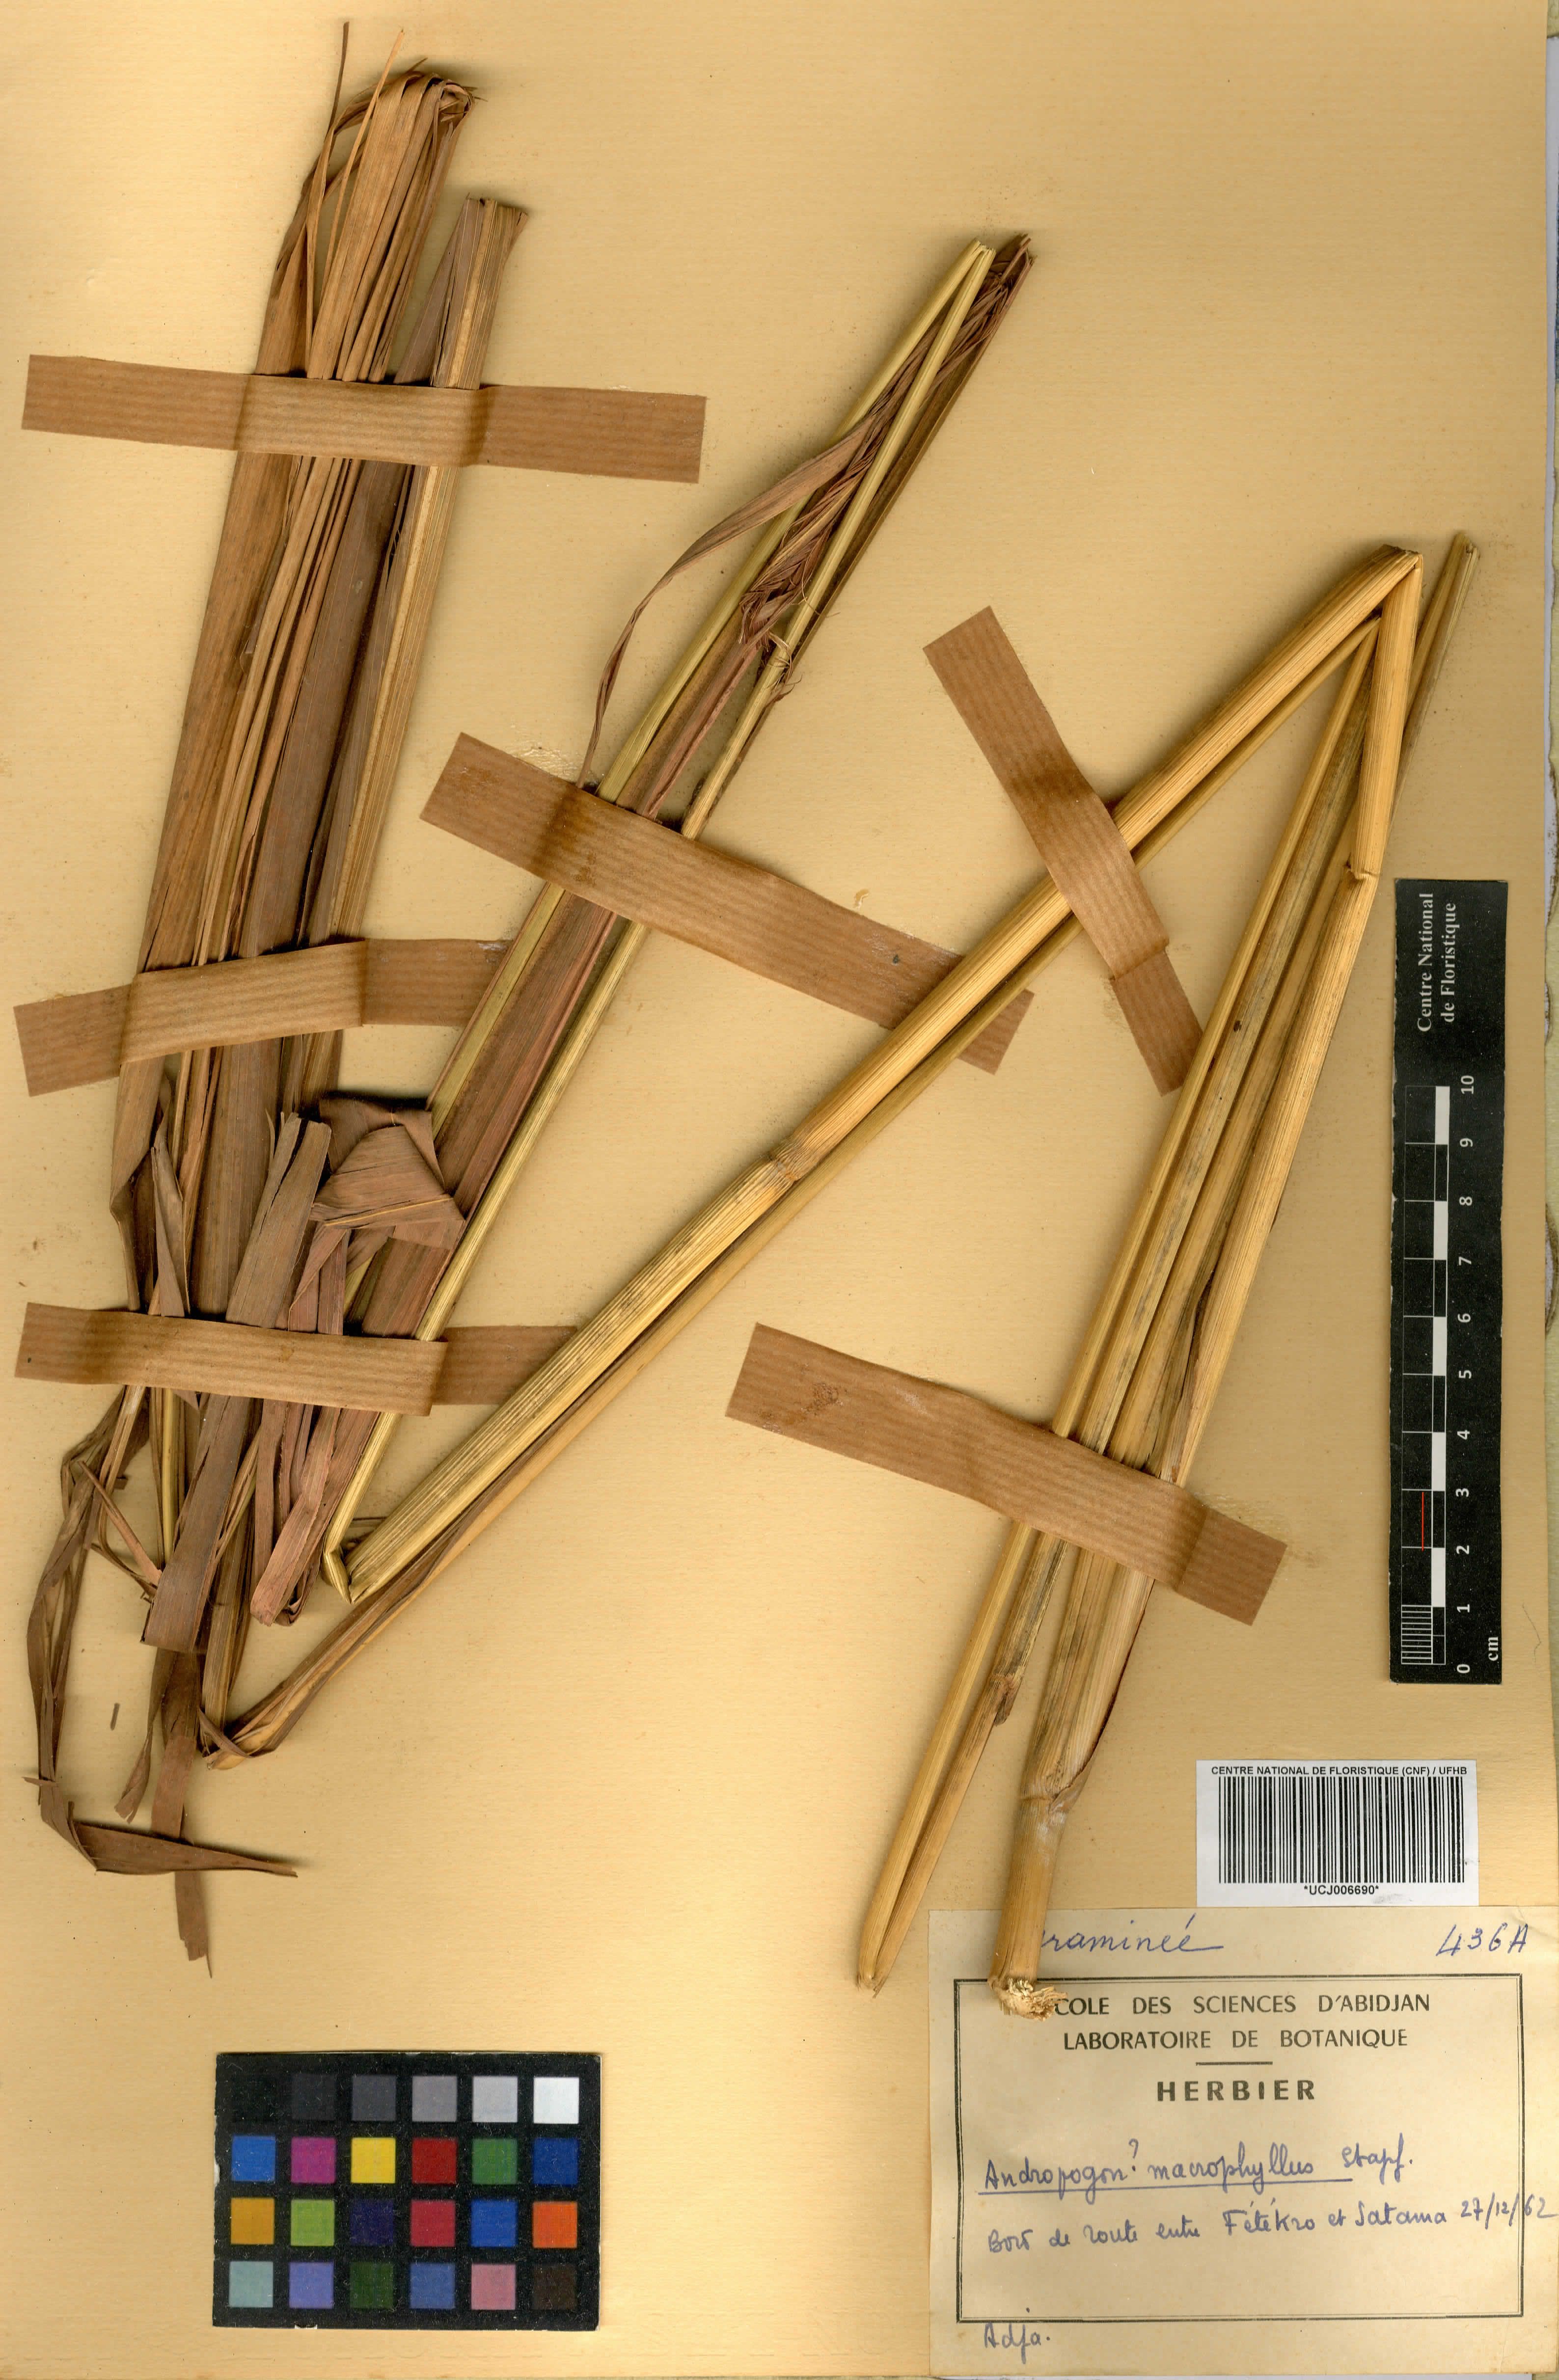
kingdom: Plantae
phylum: Tracheophyta
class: Liliopsida
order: Poales
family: Poaceae
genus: Andropogon
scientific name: Andropogon macrophyllus
